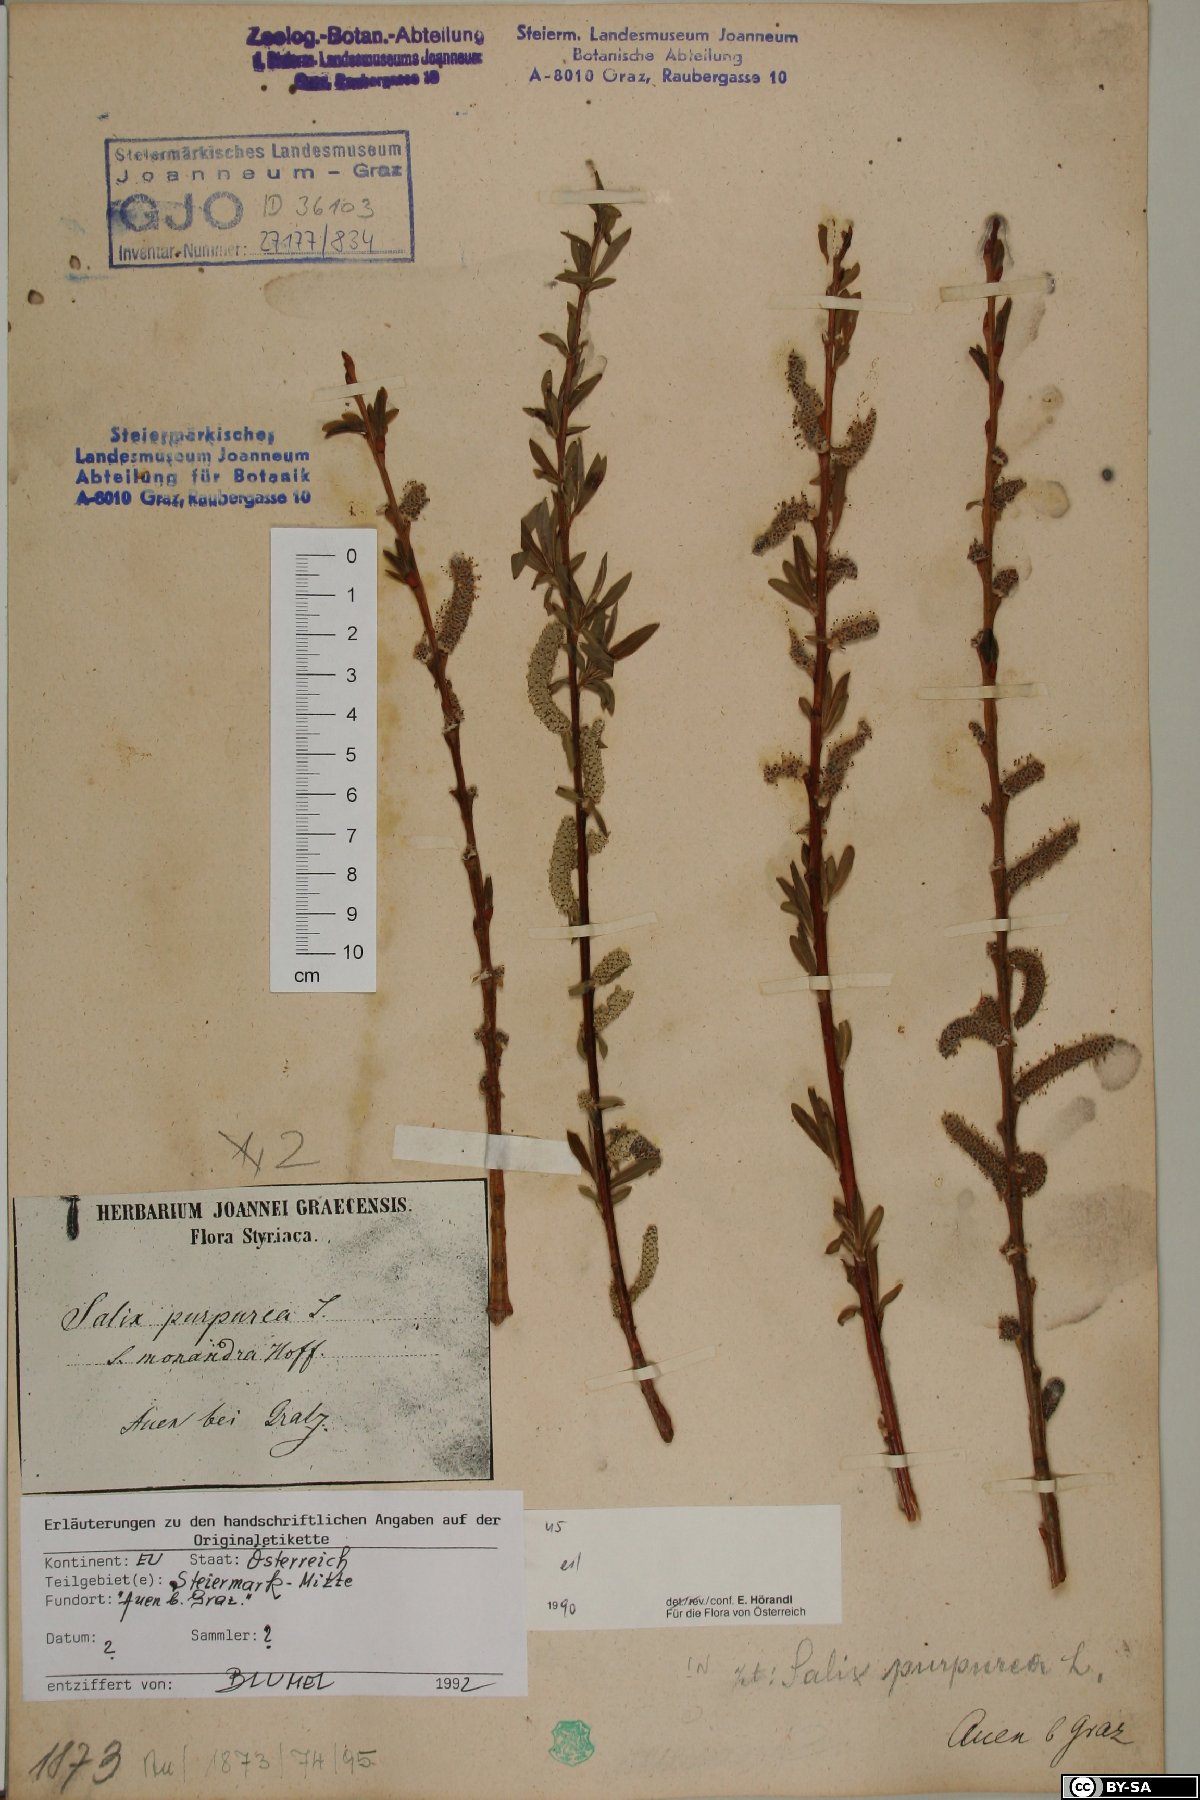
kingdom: Plantae
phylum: Tracheophyta
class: Magnoliopsida
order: Malpighiales
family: Salicaceae
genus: Salix
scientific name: Salix purpurea
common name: Purple willow
